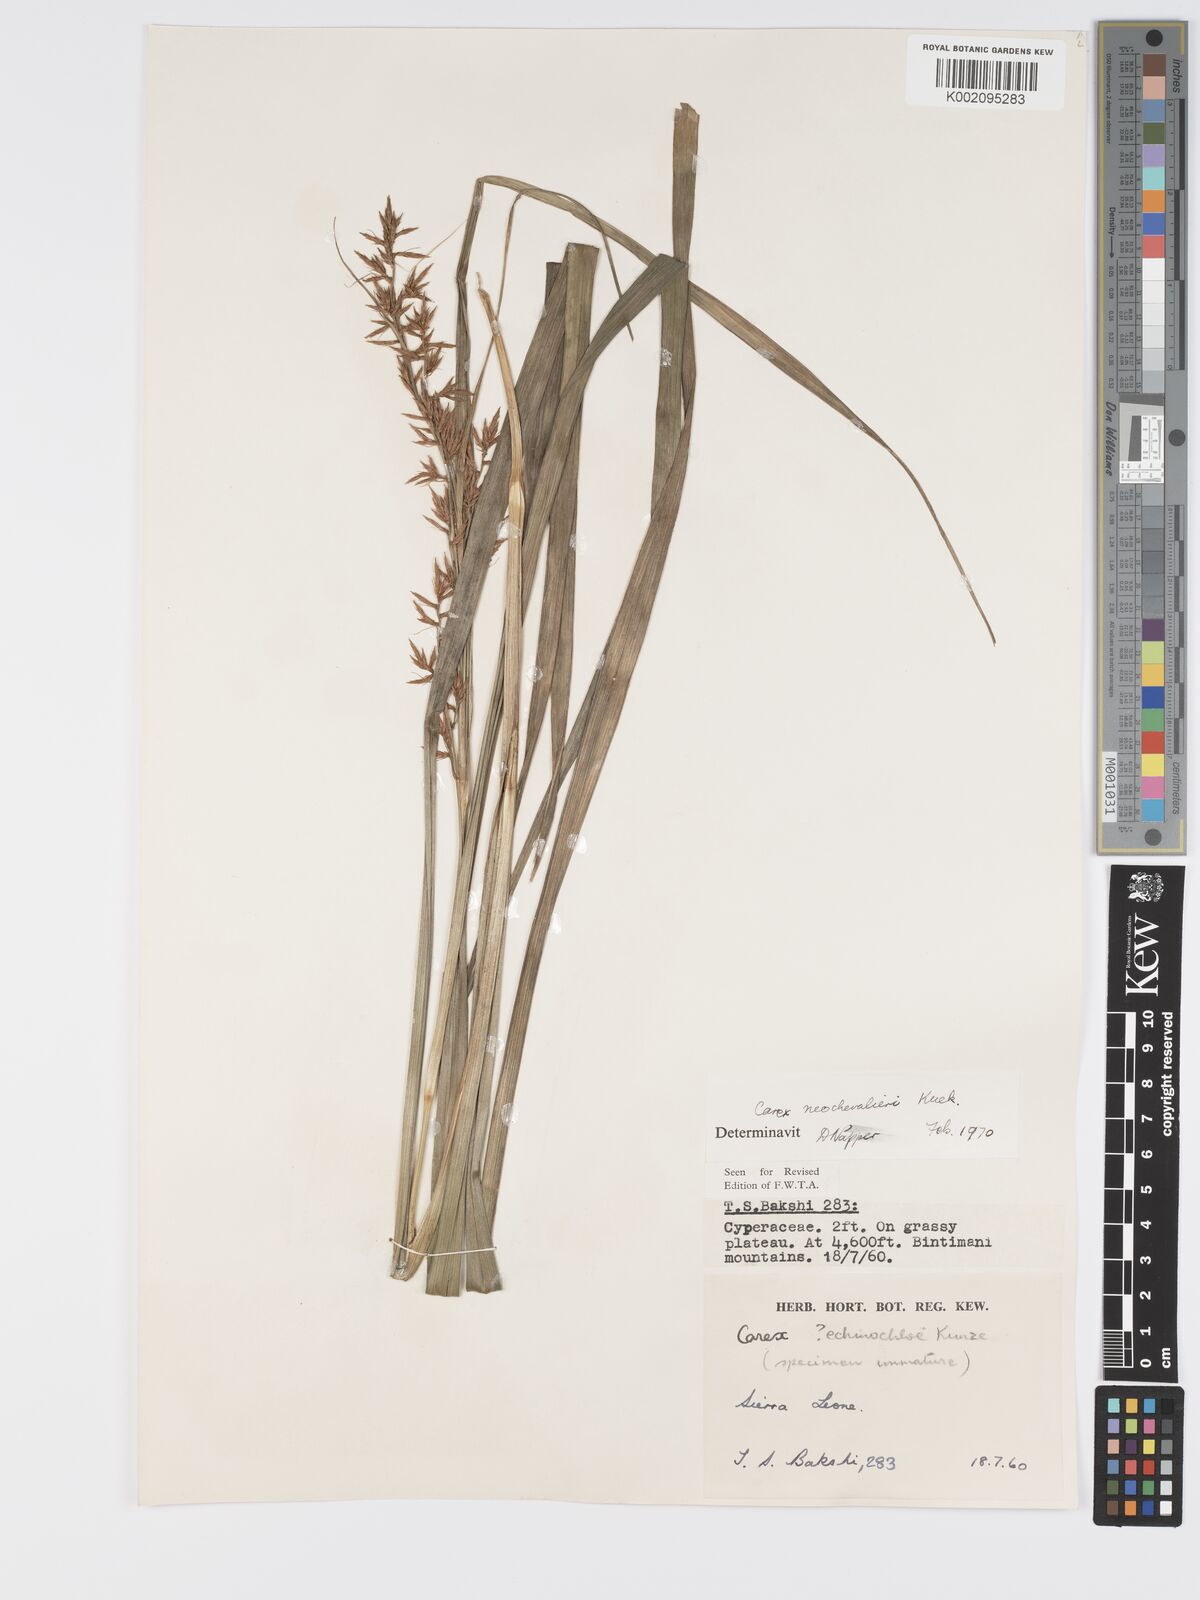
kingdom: Plantae
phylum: Tracheophyta
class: Liliopsida
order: Poales
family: Cyperaceae
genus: Carex
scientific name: Carex neochevalieri
